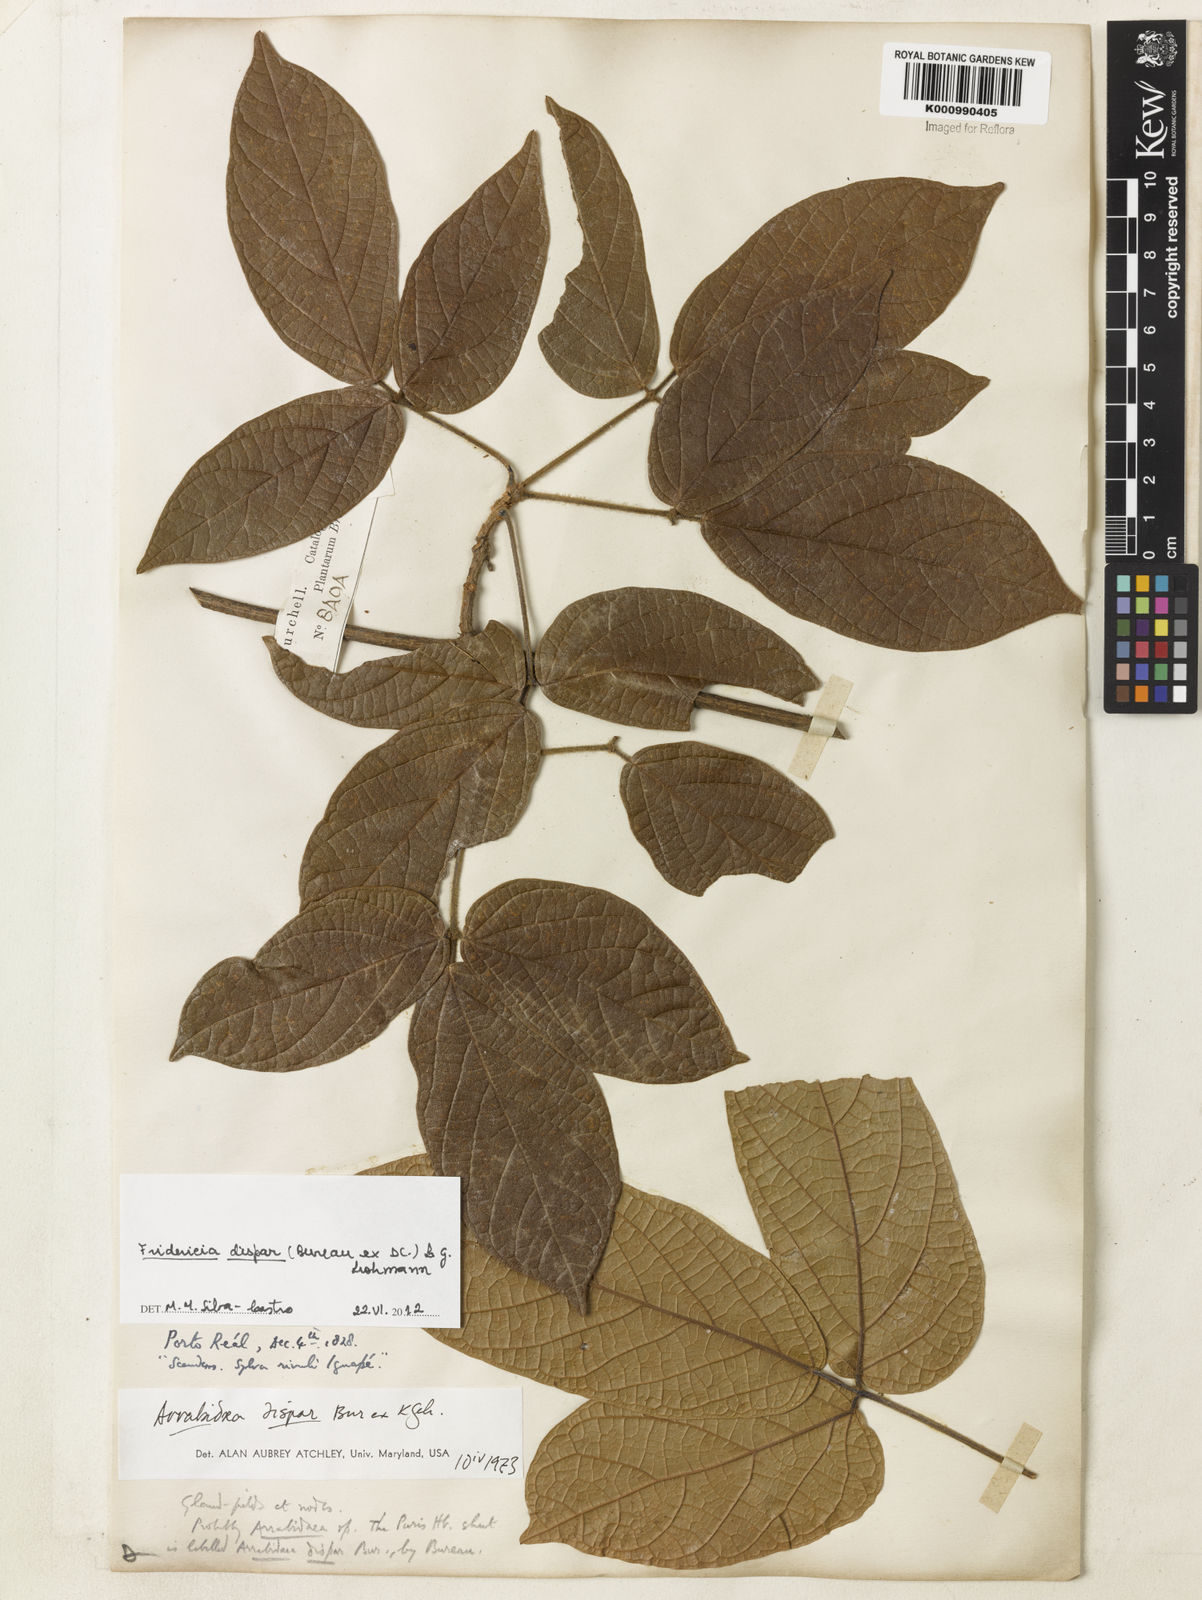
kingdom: Plantae
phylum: Tracheophyta
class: Magnoliopsida
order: Lamiales
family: Bignoniaceae
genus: Fridericia
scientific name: Fridericia dispar
